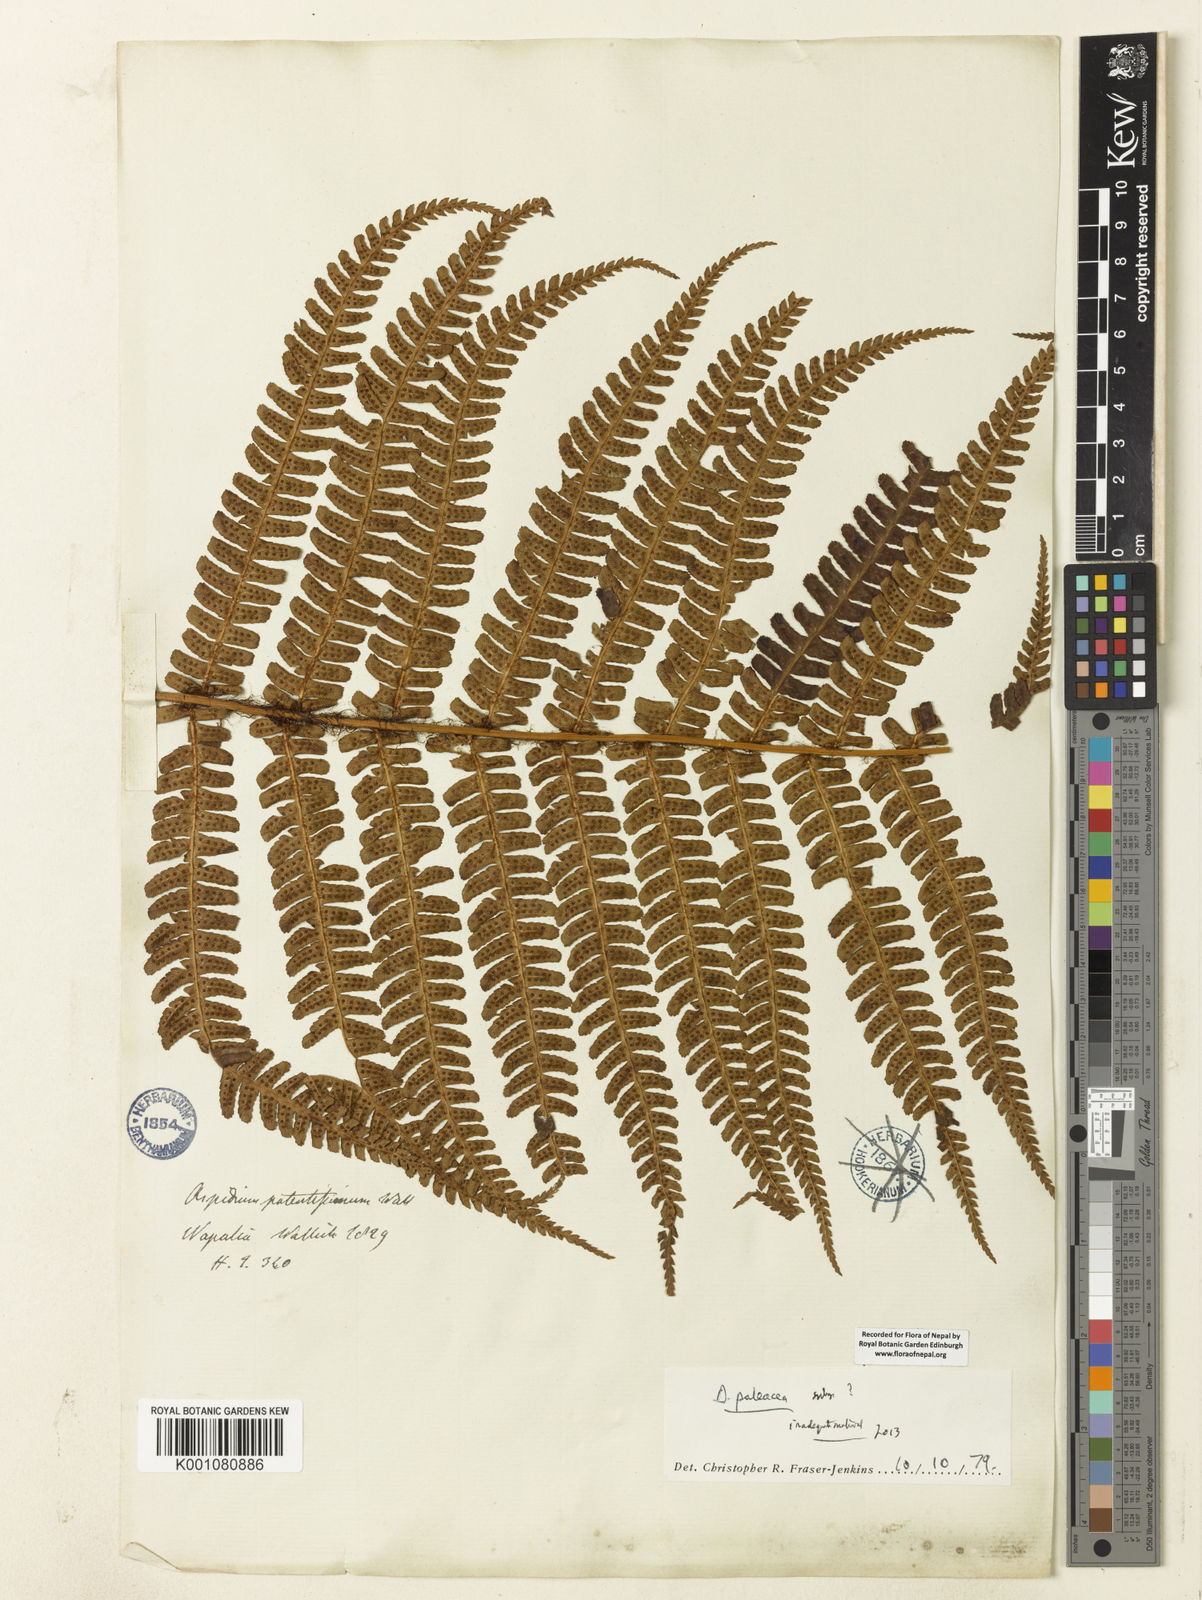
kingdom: Plantae
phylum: Tracheophyta
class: Polypodiopsida
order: Polypodiales
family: Dryopteridaceae
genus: Dryopteris
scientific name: Dryopteris wallichiana
